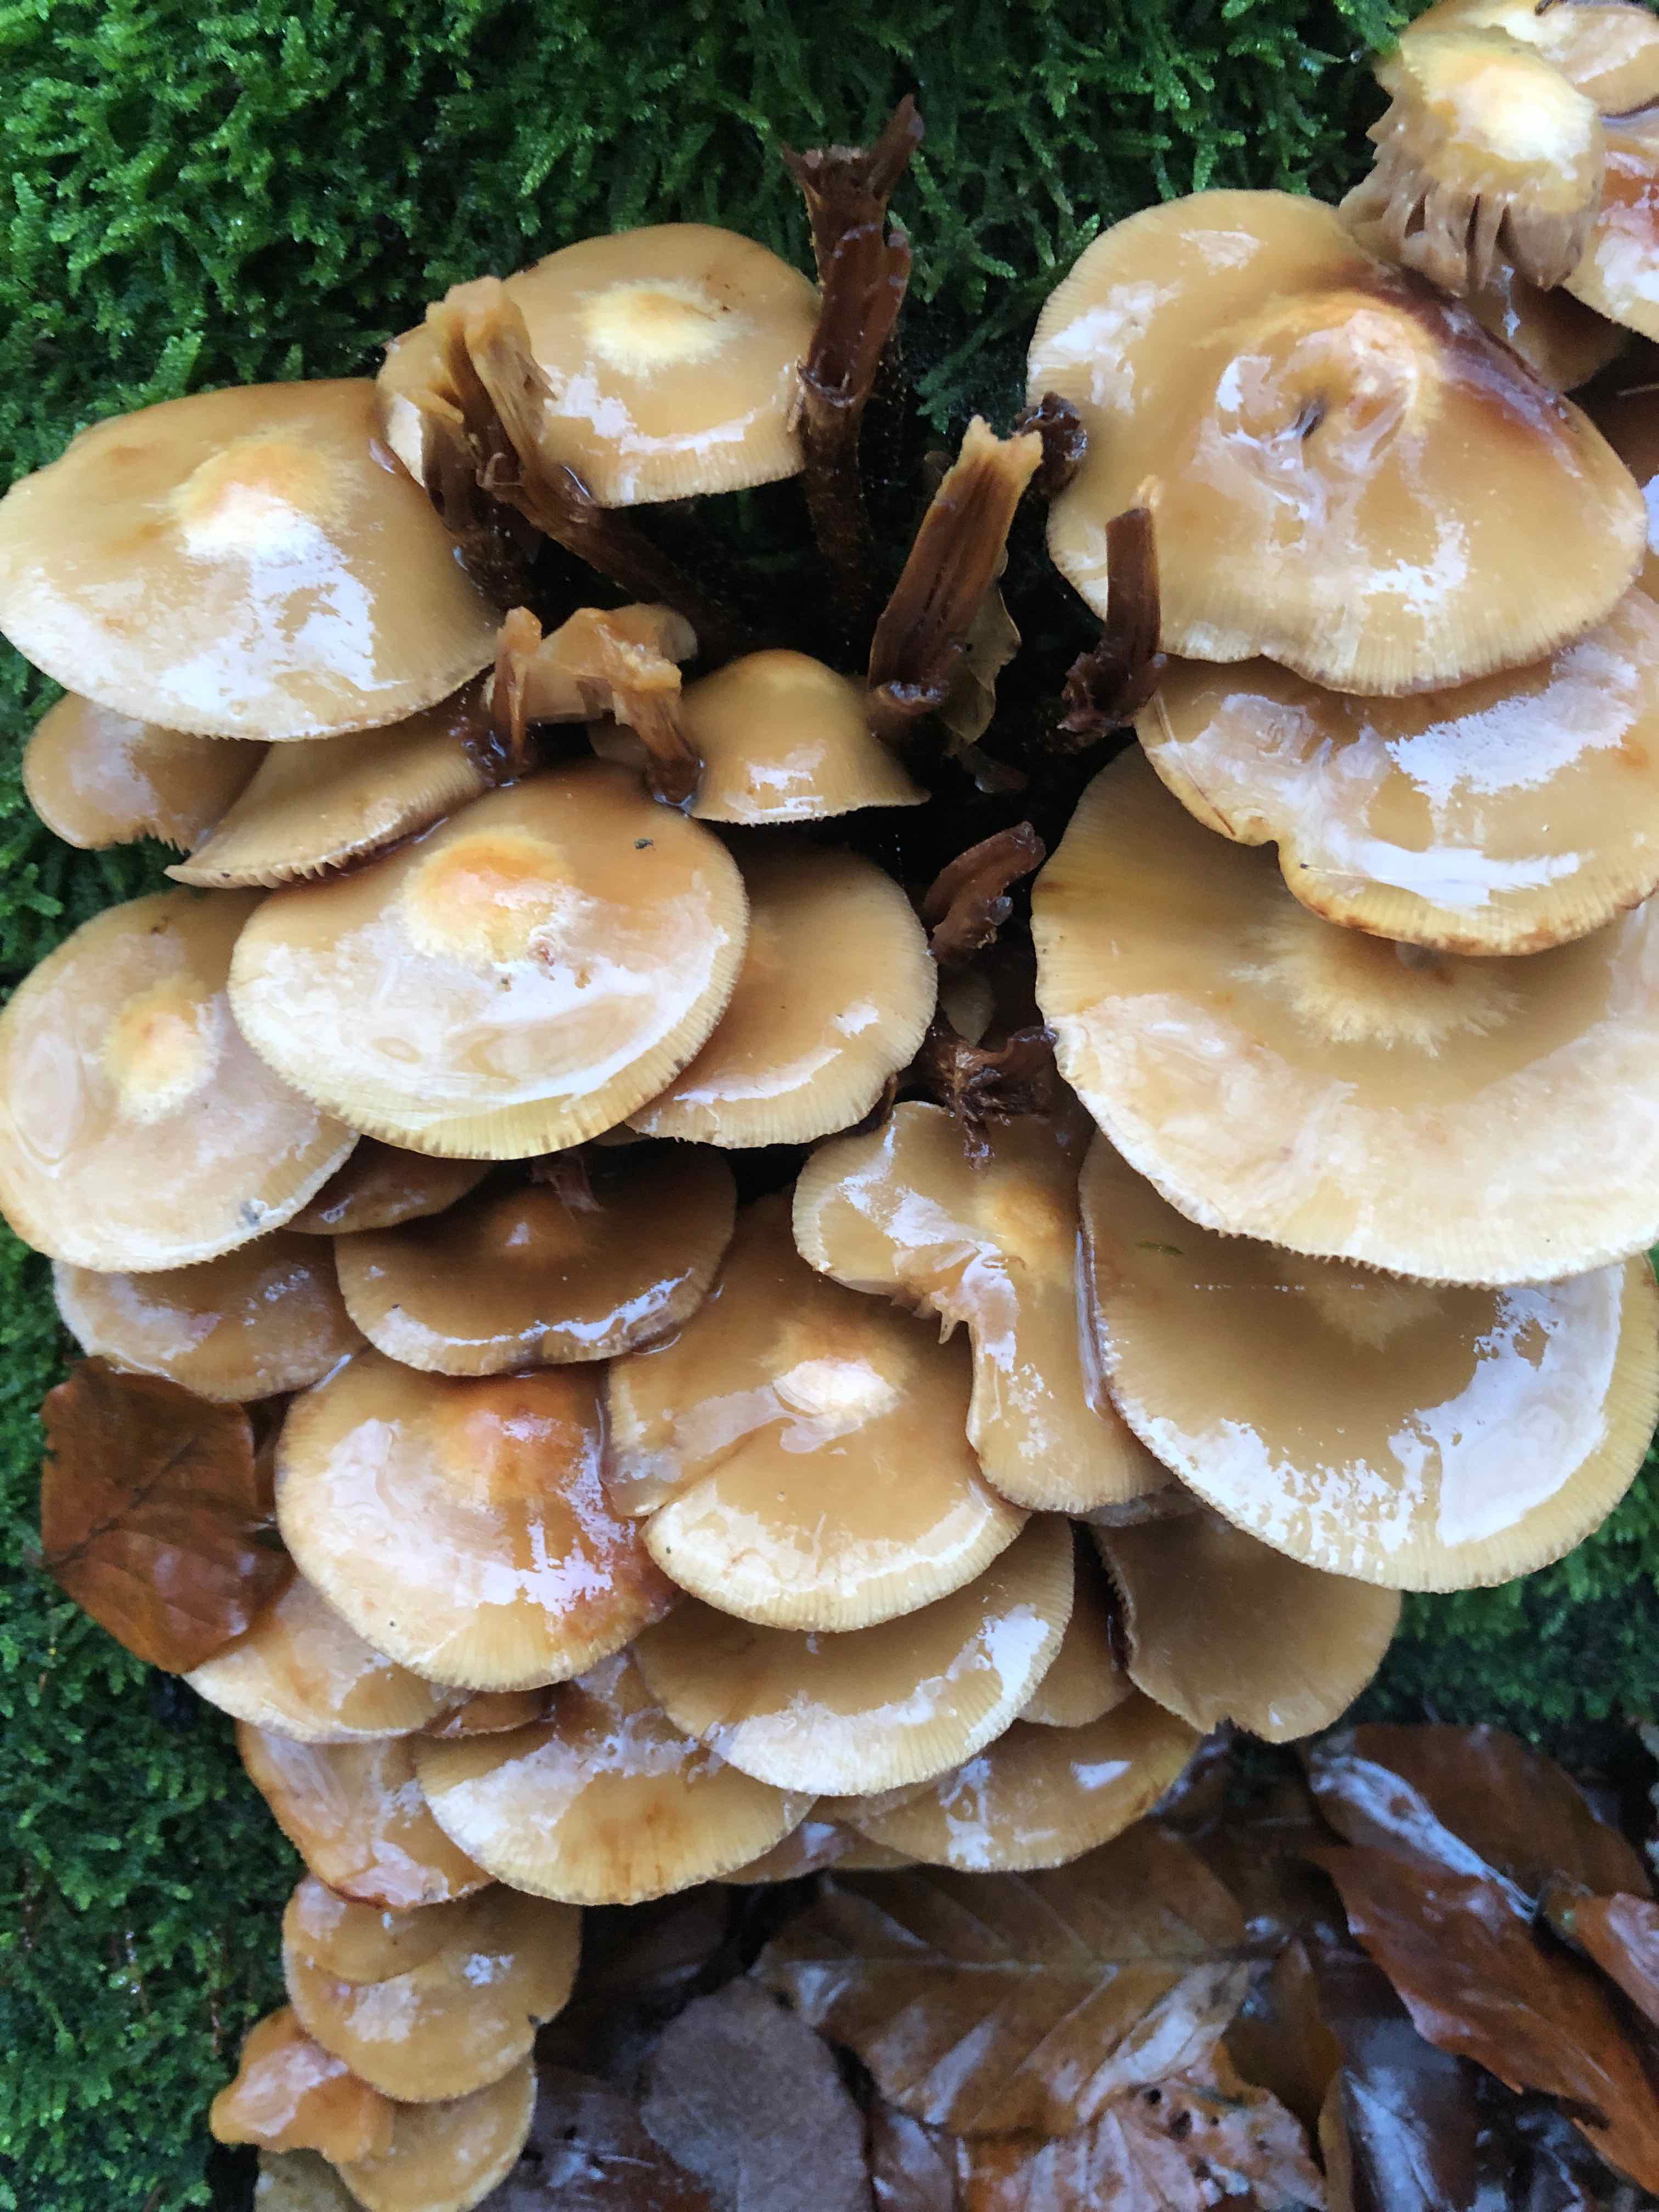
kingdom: Fungi
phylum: Basidiomycota
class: Agaricomycetes
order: Agaricales
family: Strophariaceae
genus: Kuehneromyces
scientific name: Kuehneromyces mutabilis
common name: foranderlig skælhat
